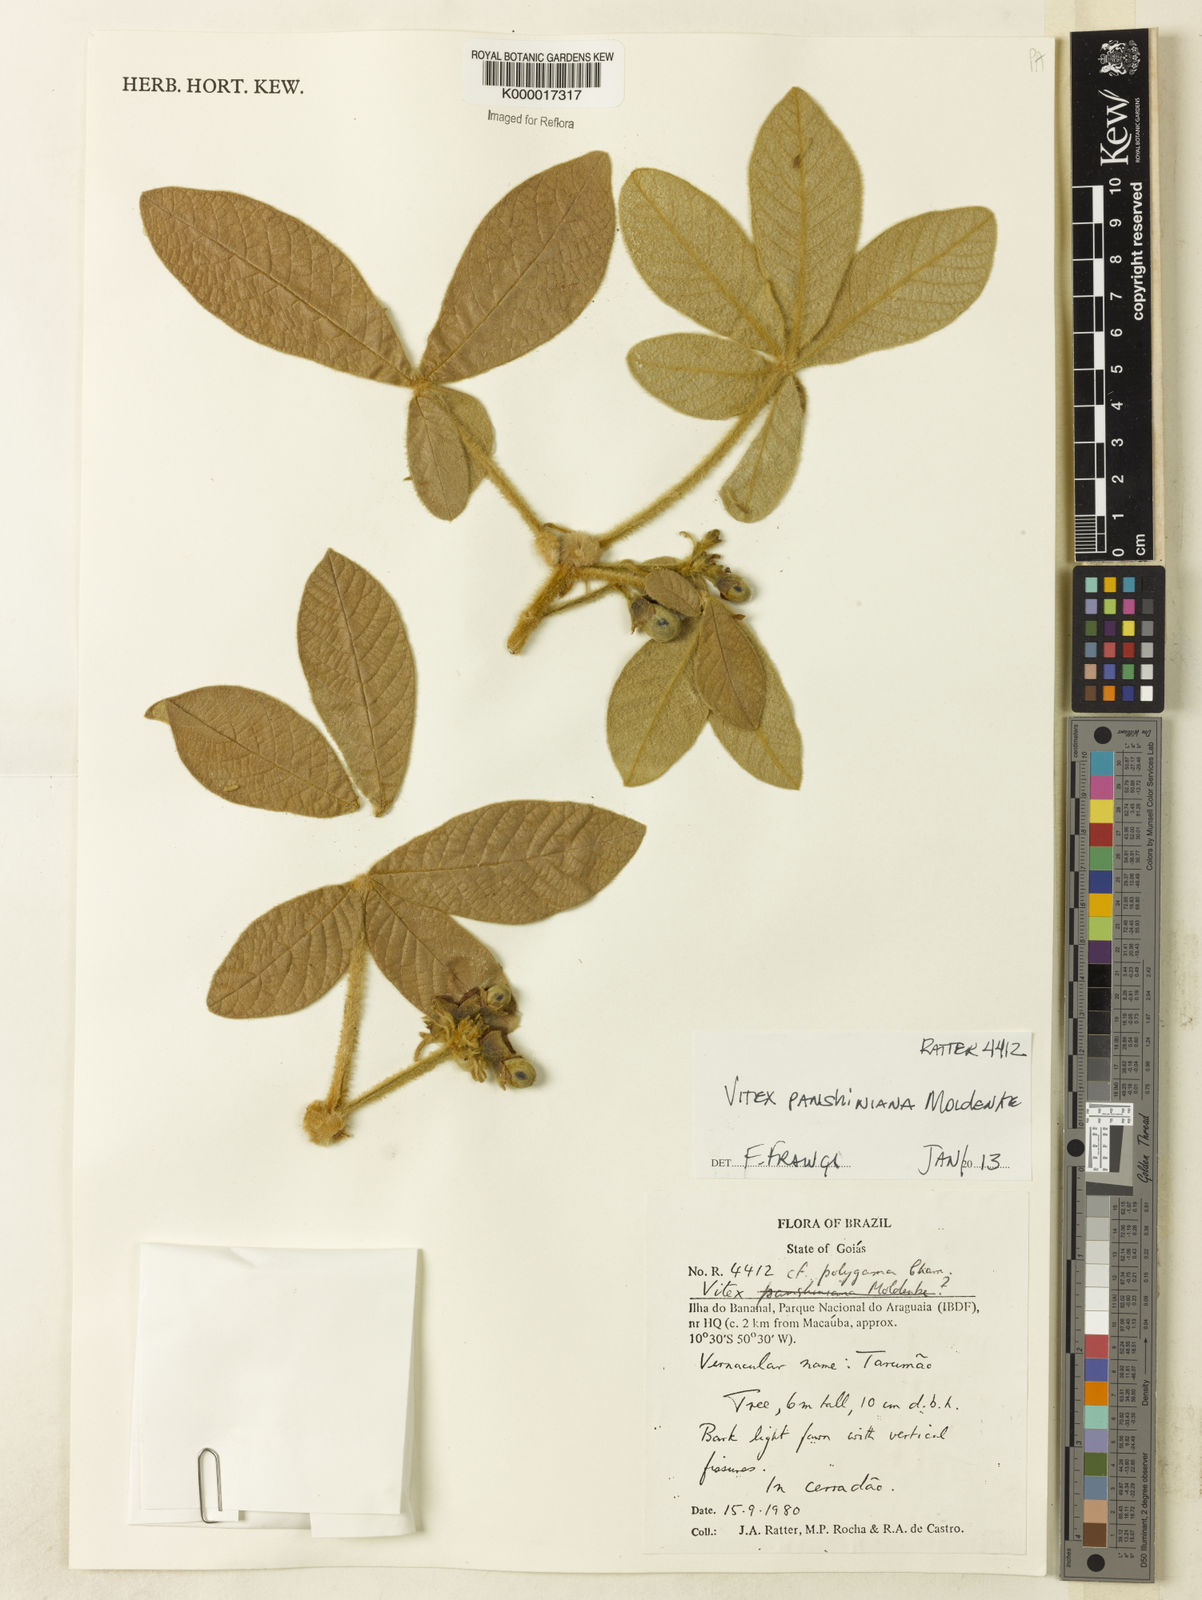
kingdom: Plantae
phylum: Tracheophyta
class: Magnoliopsida
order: Lamiales
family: Lamiaceae
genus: Vitex
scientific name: Vitex panshiniana
